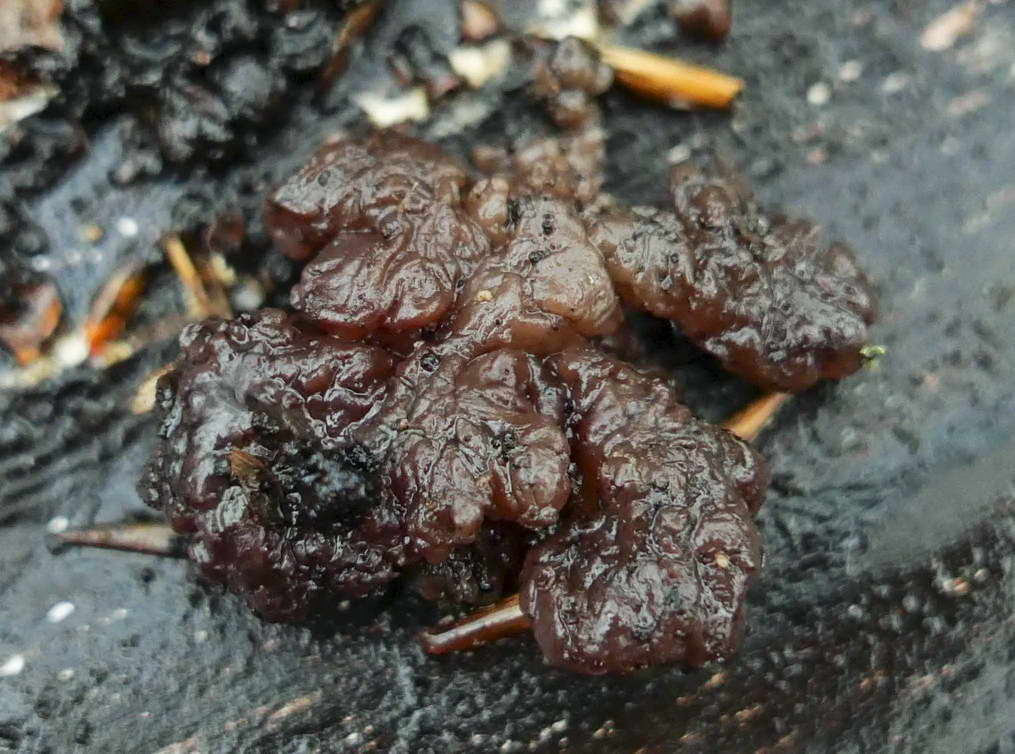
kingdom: Fungi
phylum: Ascomycota
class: Leotiomycetes
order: Helotiales
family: Gelatinodiscaceae
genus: Ascotremella
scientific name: Ascotremella faginea
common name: hjerne-bævreskive
